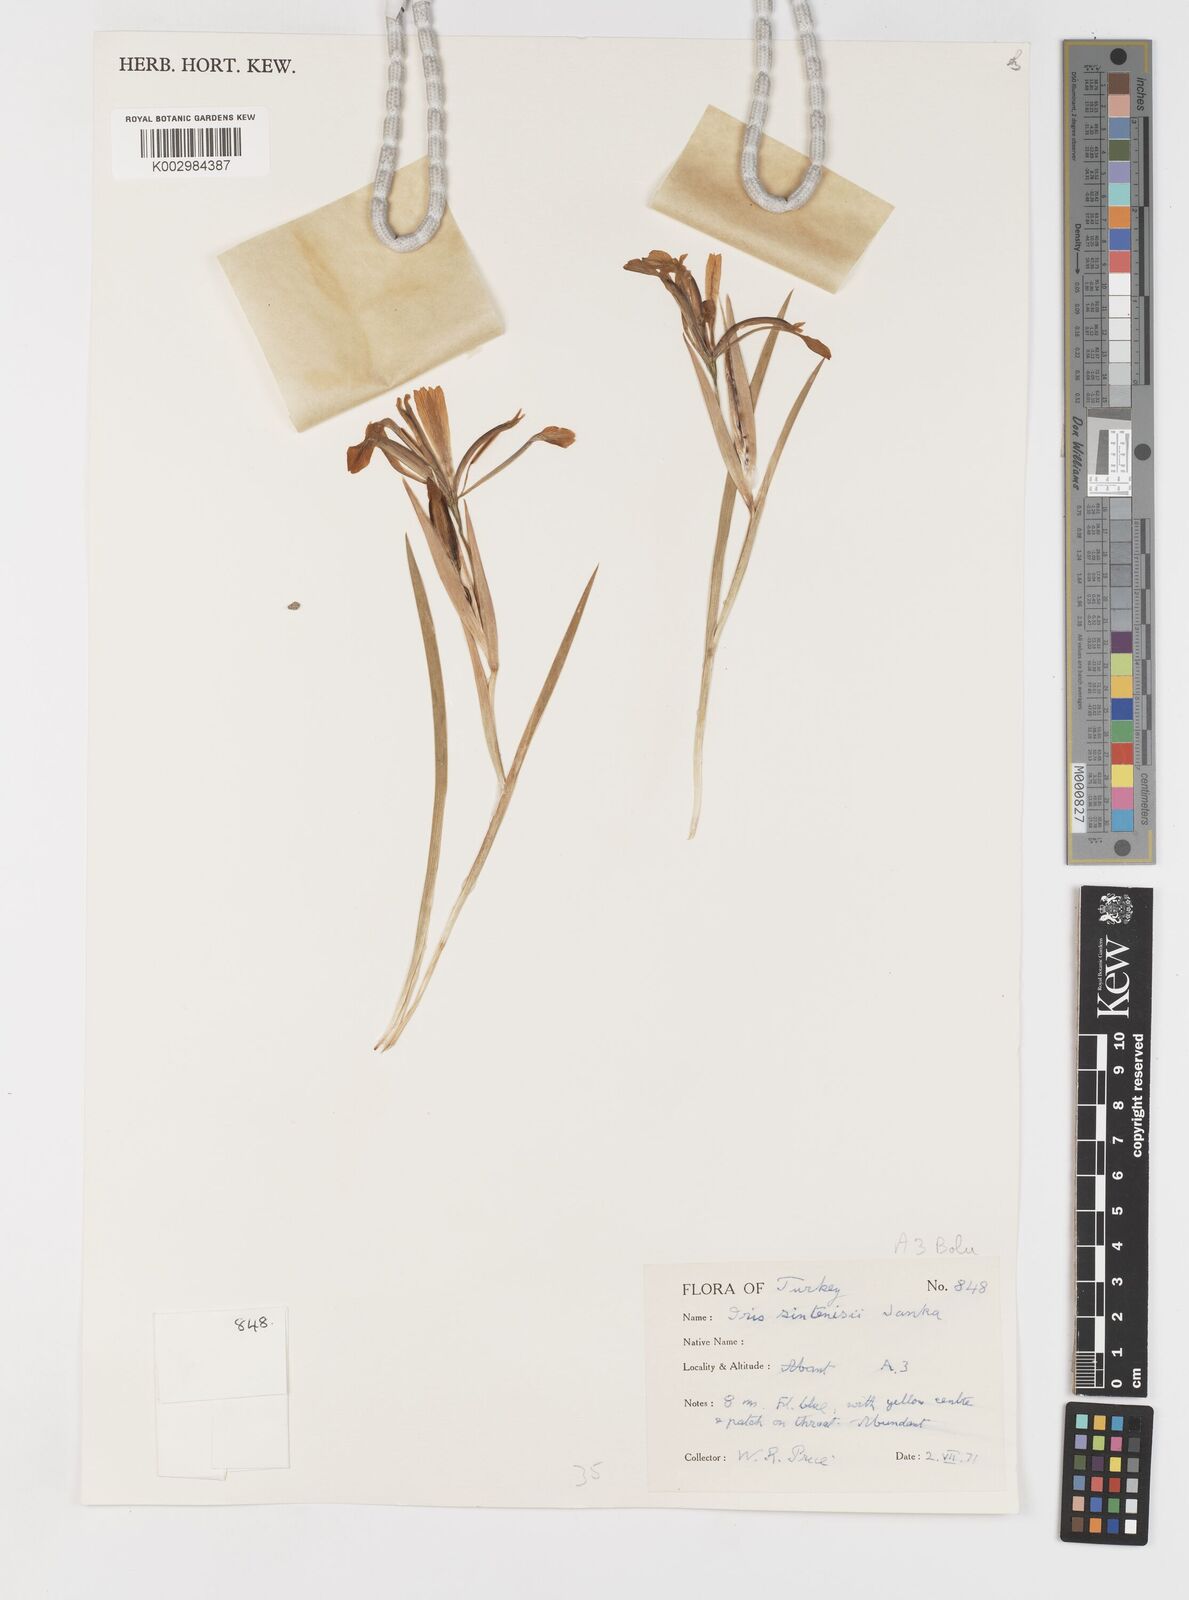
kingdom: Plantae
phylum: Tracheophyta
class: Liliopsida
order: Asparagales
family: Iridaceae
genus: Iris
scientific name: Iris sintenisii
